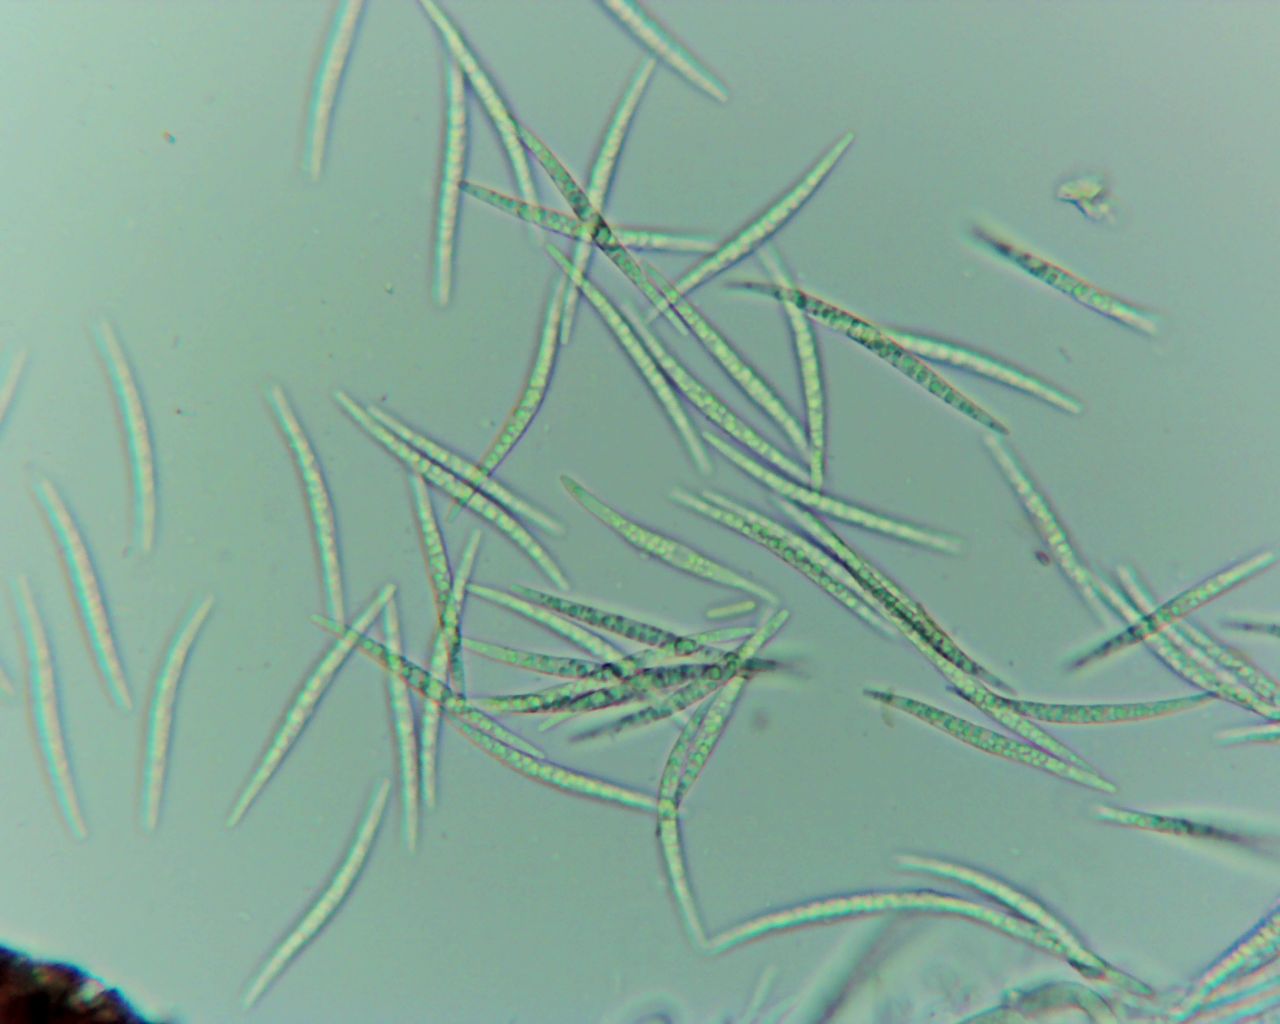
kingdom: Fungi
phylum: Ascomycota
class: Dothideomycetes
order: Tubeufiales
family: Tubeufiaceae
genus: Tubeufia
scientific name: Tubeufia cerea
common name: gulbrun tyksækkrukke
